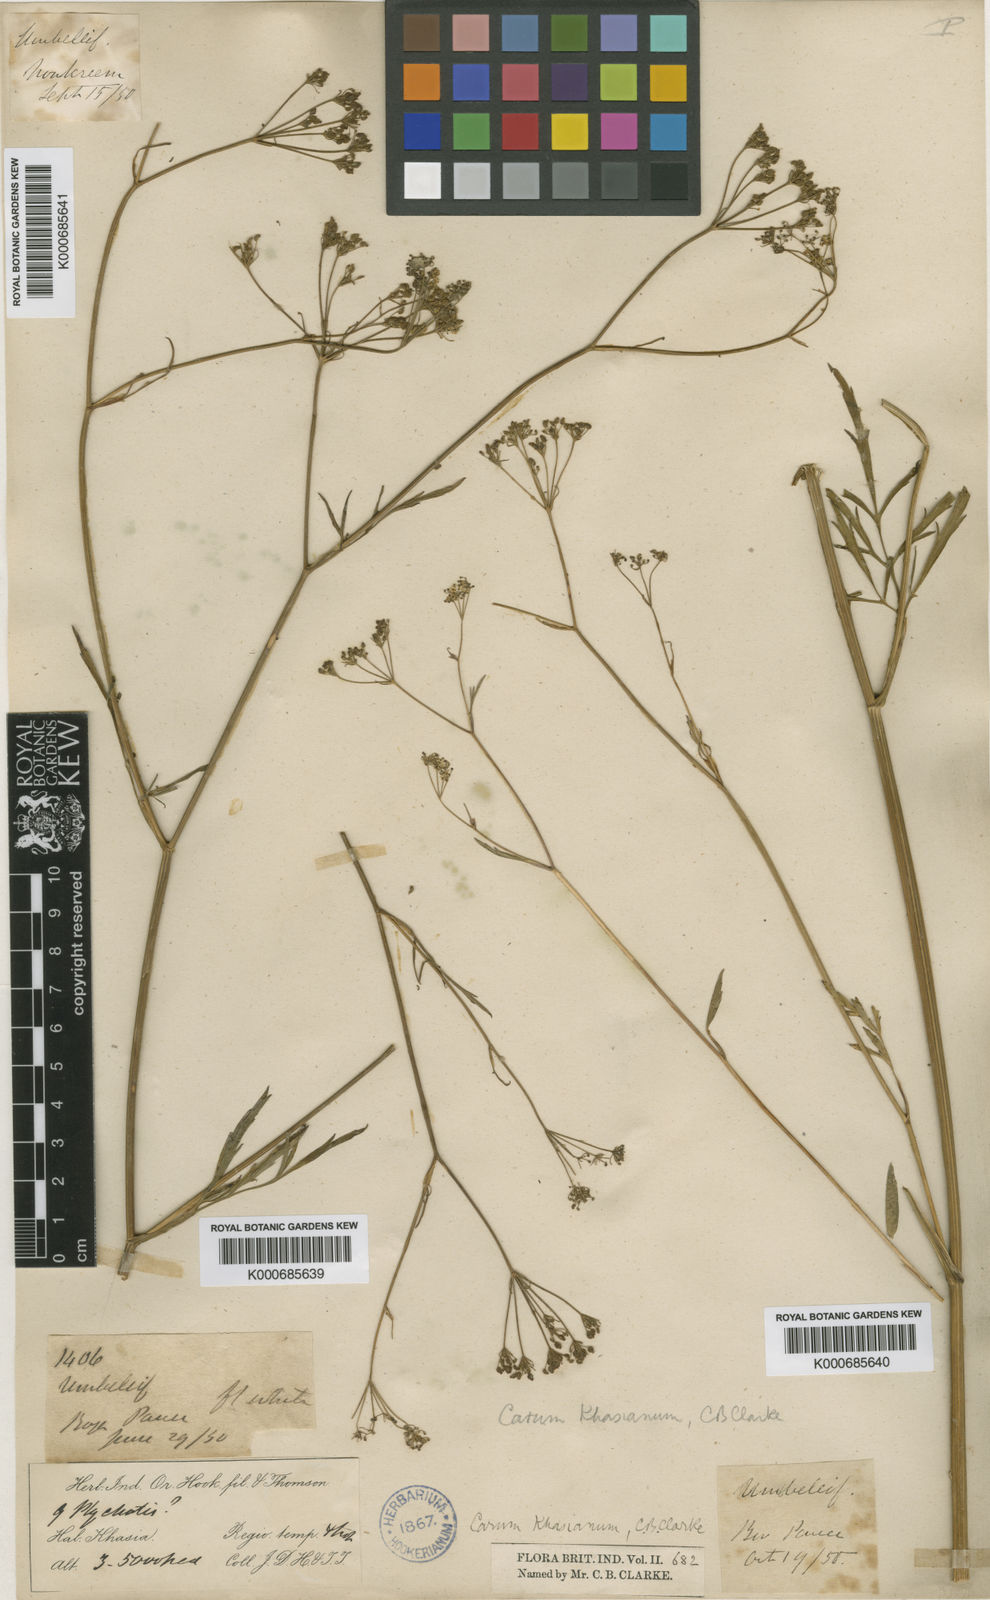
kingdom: Plantae
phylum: Tracheophyta
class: Magnoliopsida
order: Apiales
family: Apiaceae
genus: Trachyspermum
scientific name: Trachyspermum khasianum
